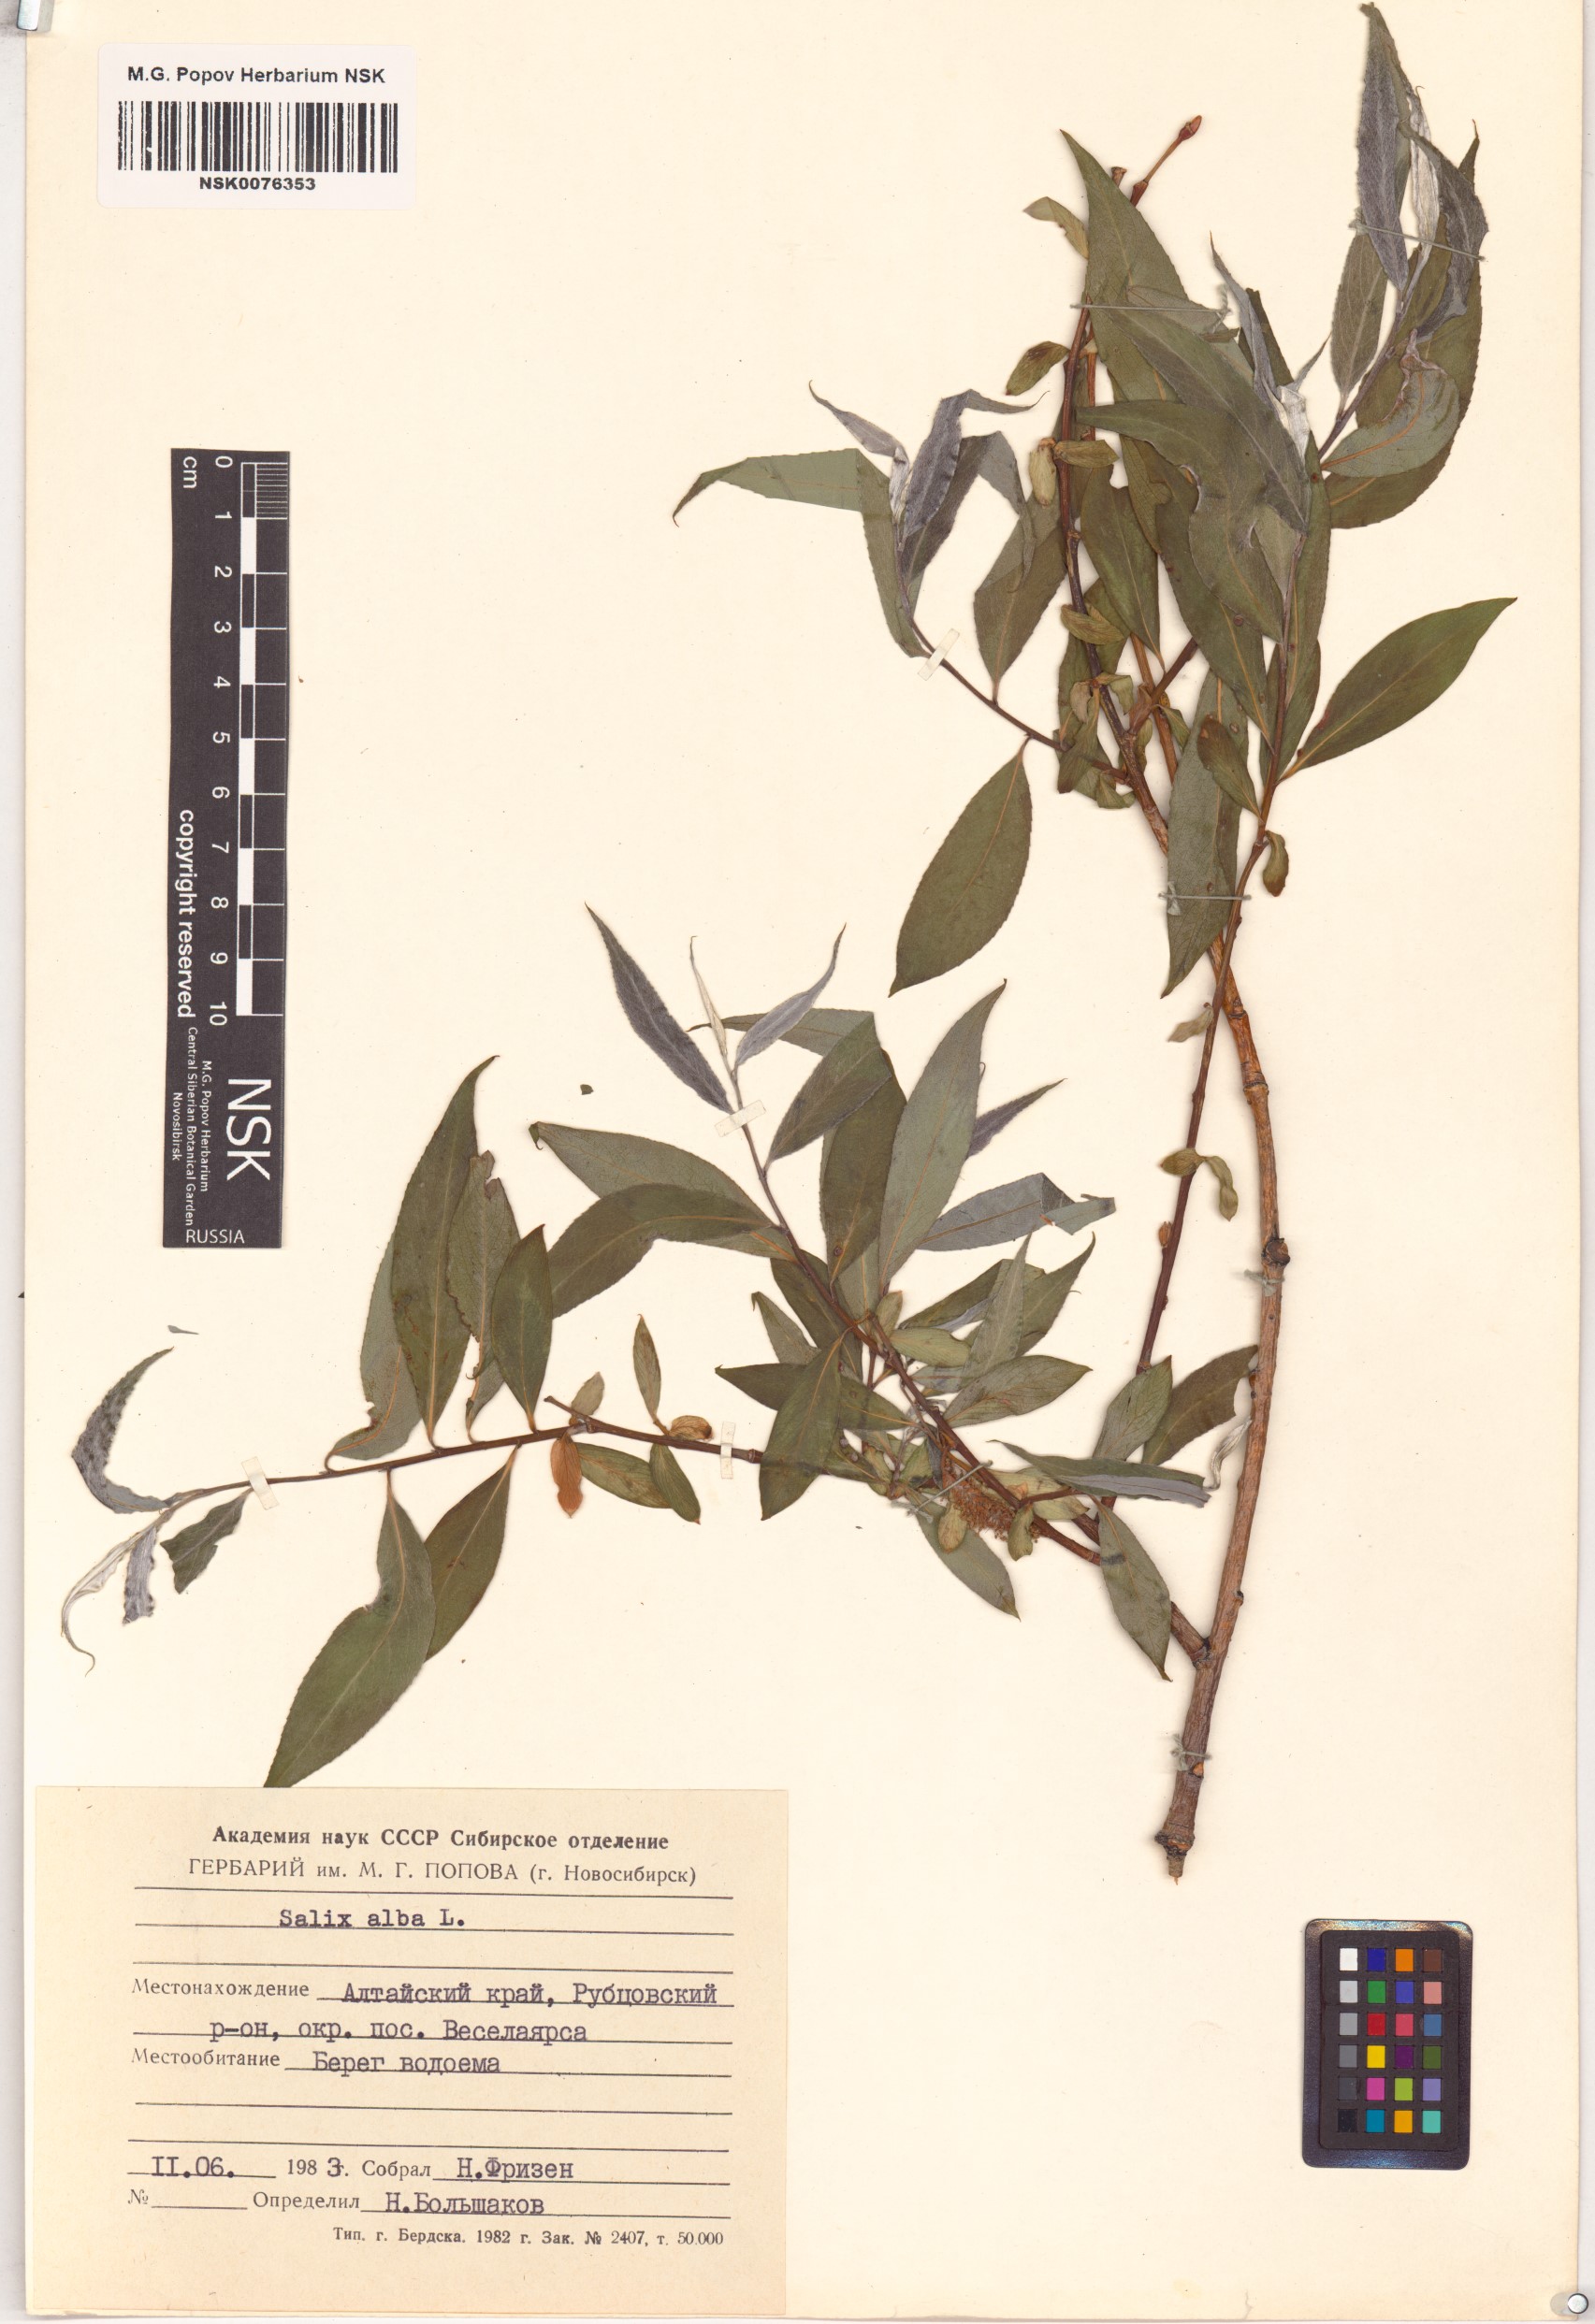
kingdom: Plantae
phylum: Tracheophyta
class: Magnoliopsida
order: Malpighiales
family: Salicaceae
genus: Salix
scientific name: Salix alba
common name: White willow
